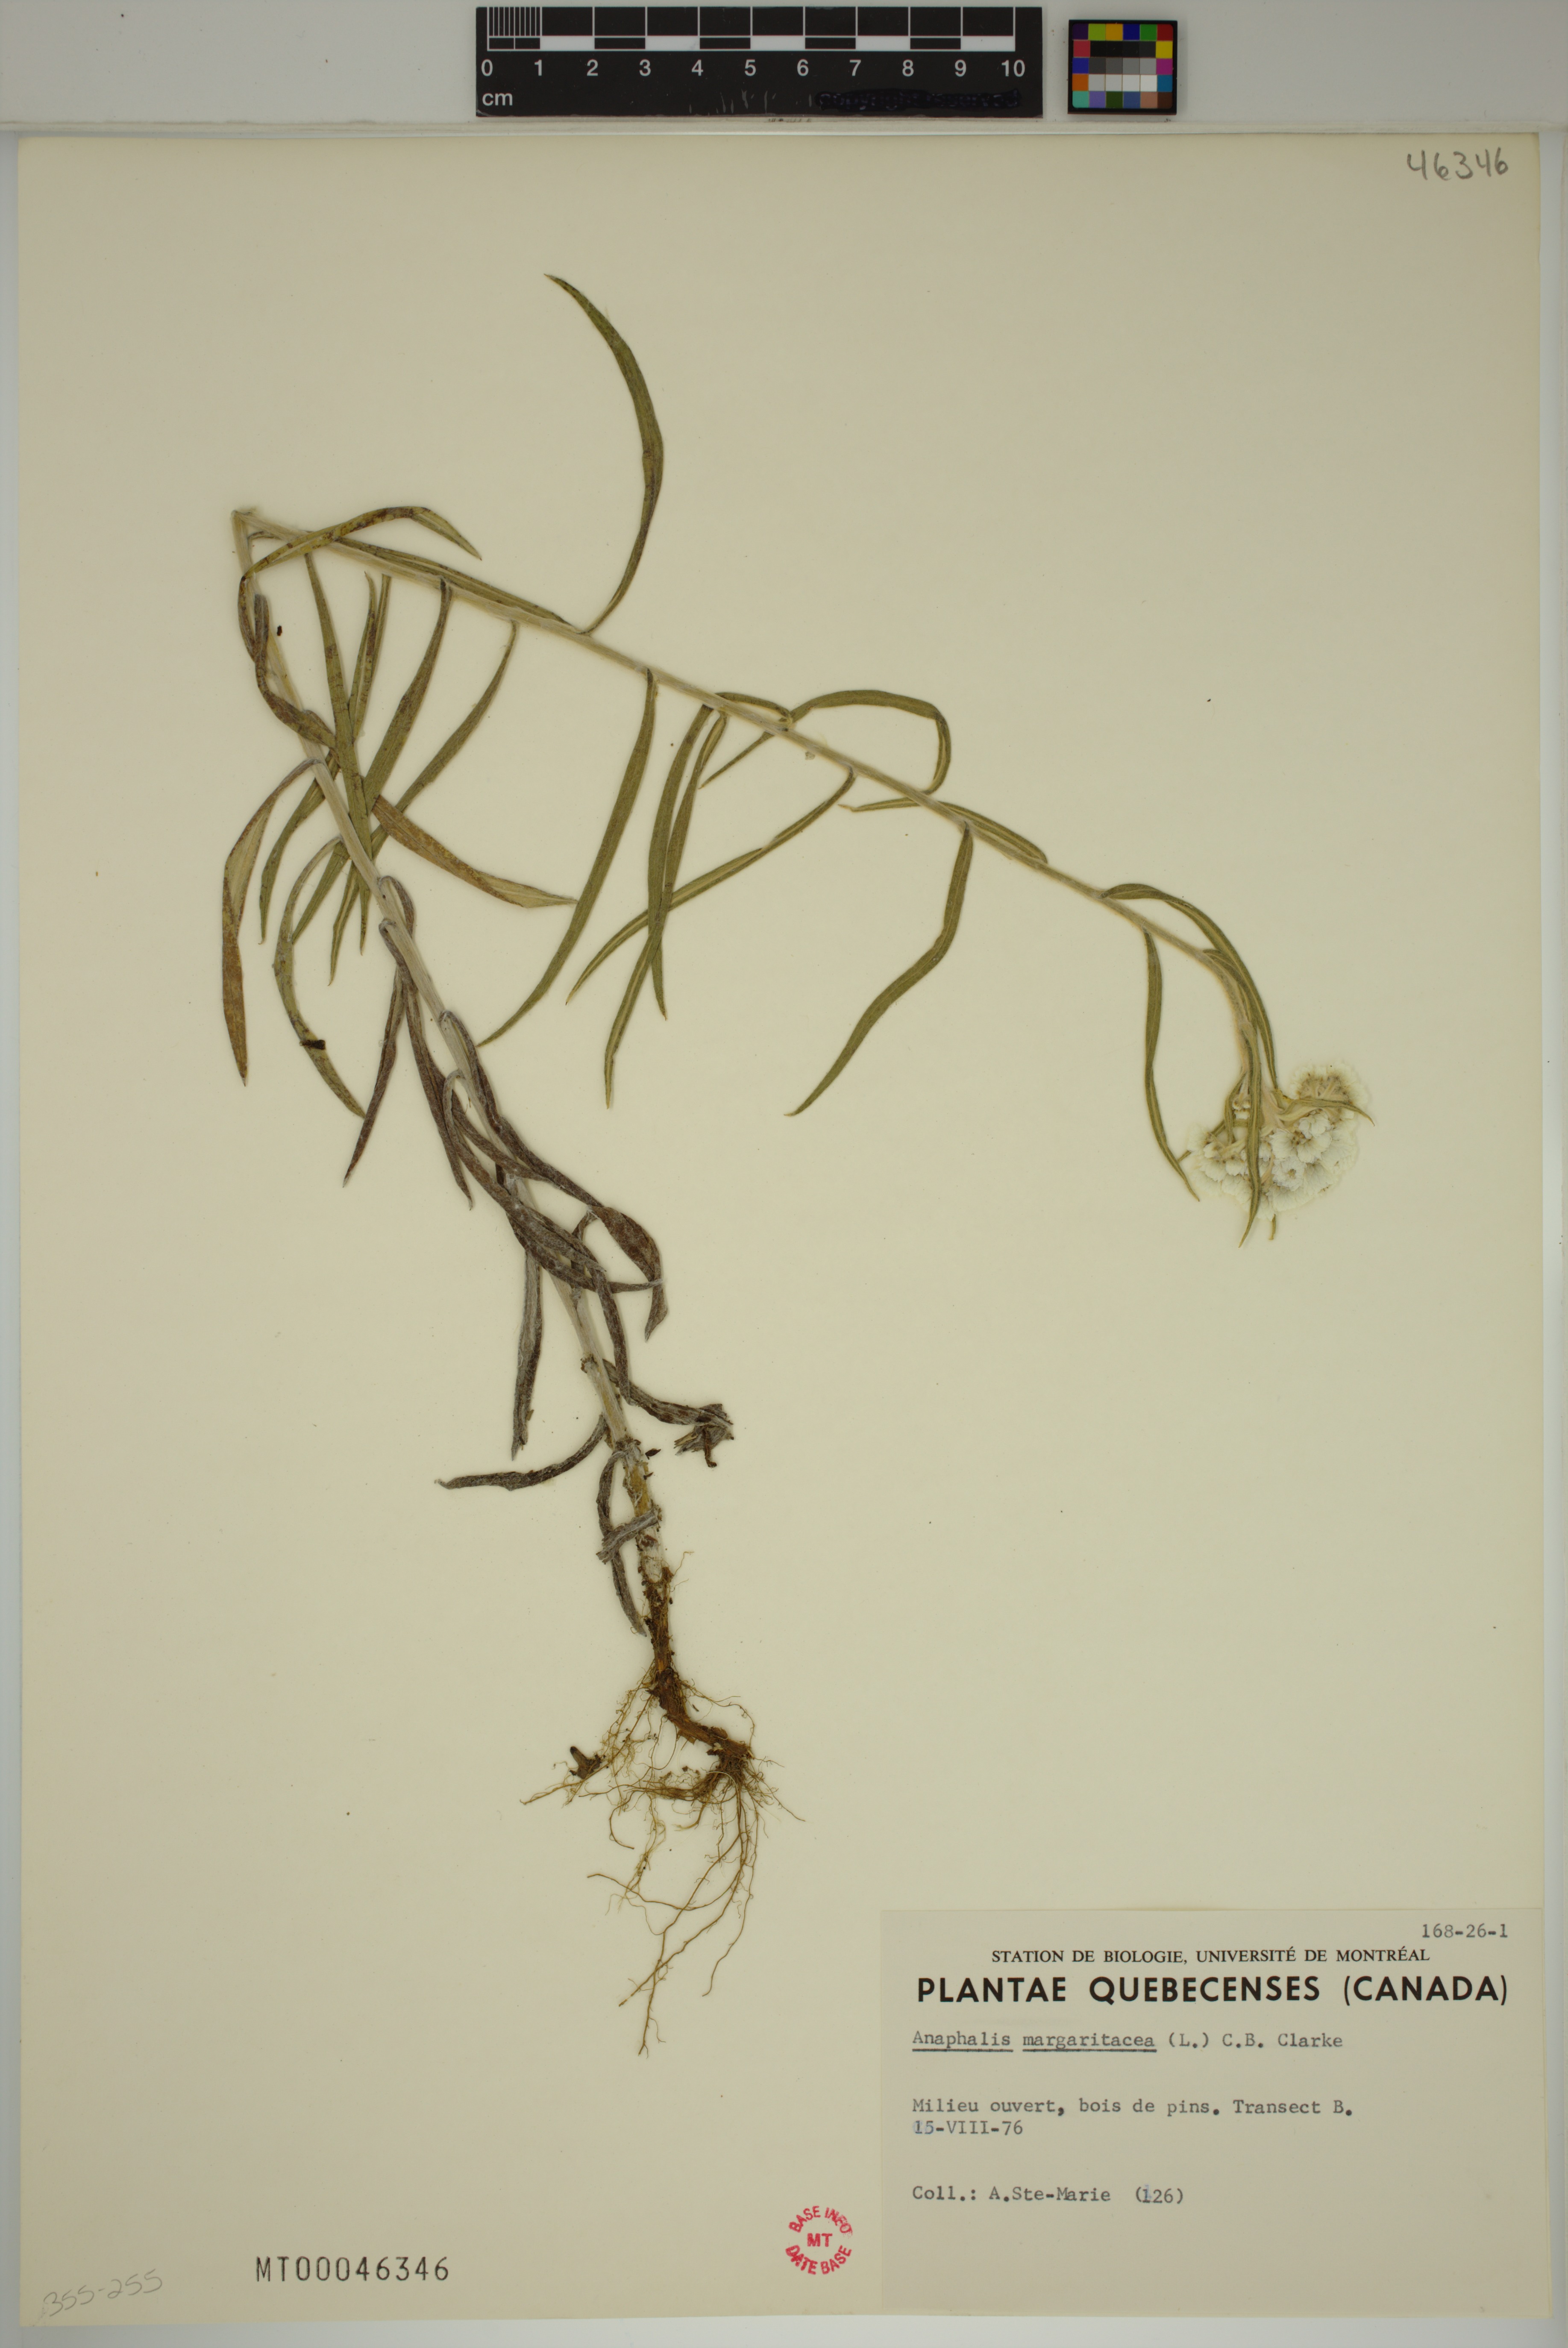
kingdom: Plantae
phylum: Tracheophyta
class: Magnoliopsida
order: Asterales
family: Asteraceae
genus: Anaphalis
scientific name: Anaphalis margaritacea
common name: Pearly everlasting
